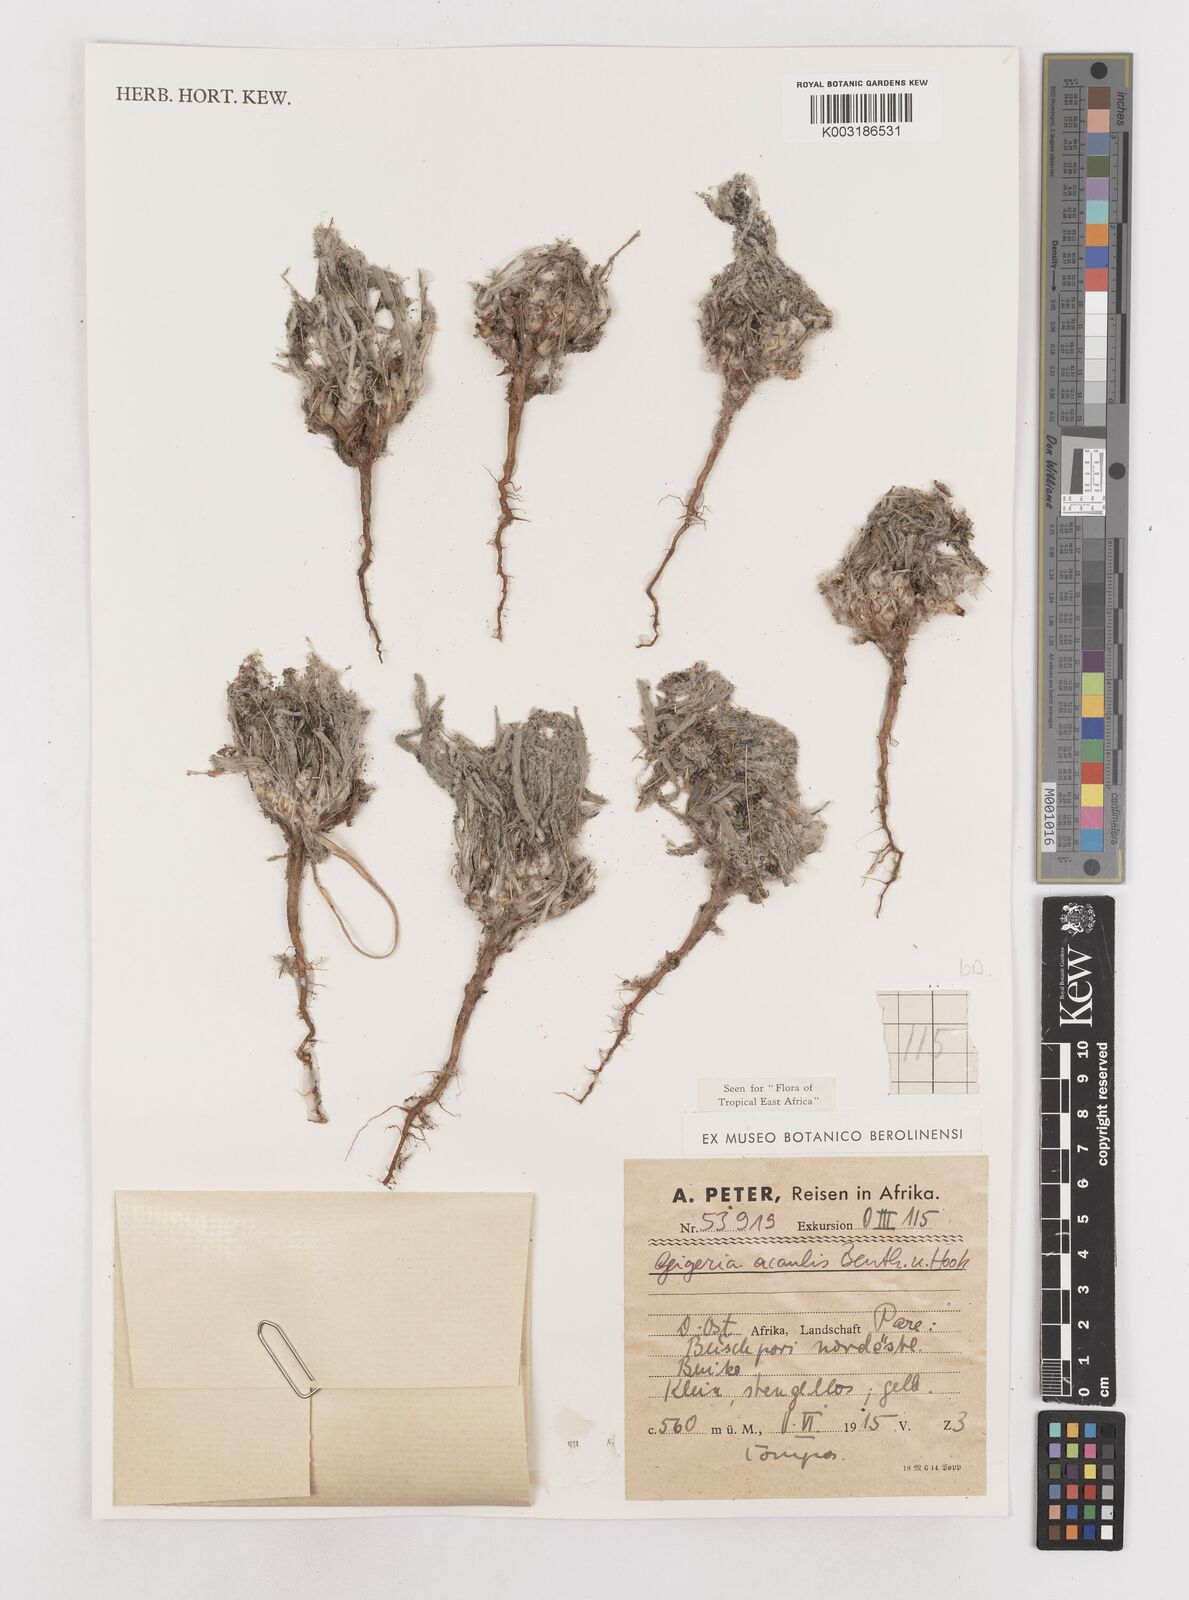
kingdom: Plantae
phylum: Tracheophyta
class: Magnoliopsida
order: Asterales
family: Asteraceae
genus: Geigeria
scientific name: Geigeria acaulis
